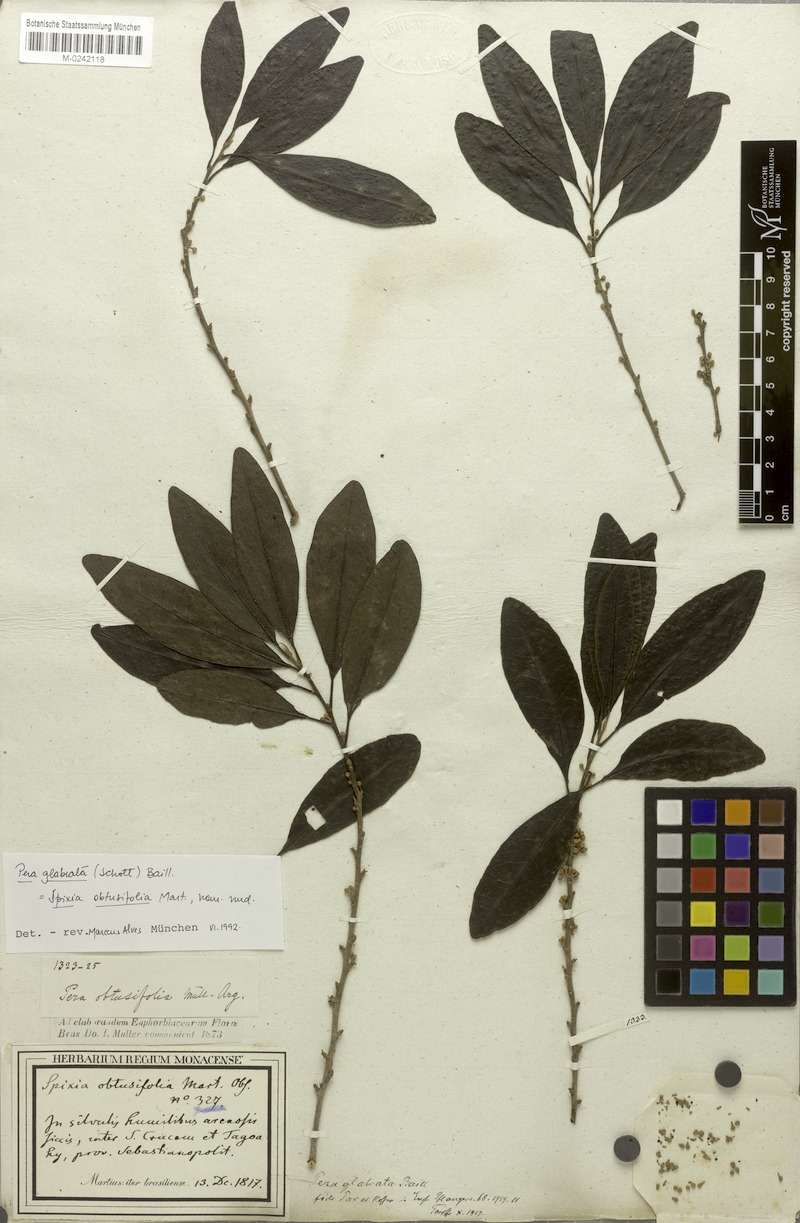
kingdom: Plantae
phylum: Tracheophyta
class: Magnoliopsida
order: Malpighiales
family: Peraceae
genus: Pera
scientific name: Pera glabrata
